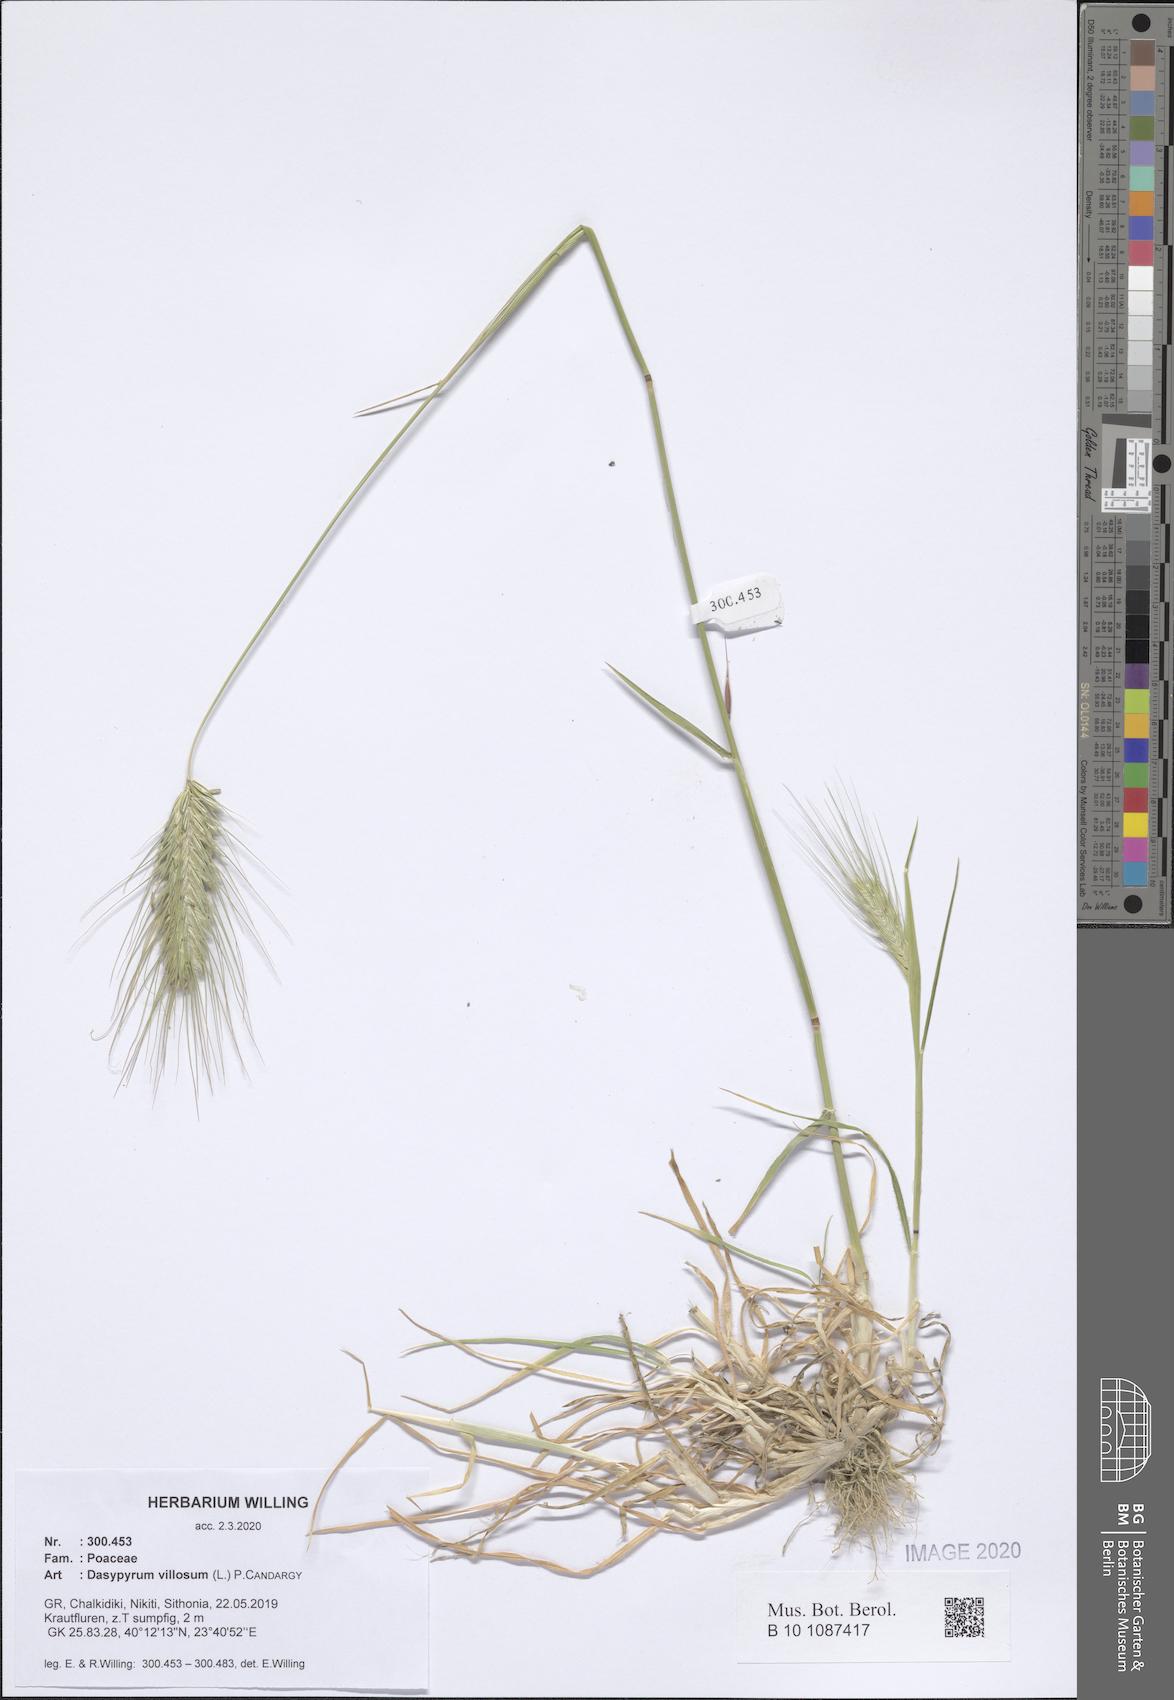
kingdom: Plantae
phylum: Tracheophyta
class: Liliopsida
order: Poales
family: Poaceae
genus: Dasypyrum
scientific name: Dasypyrum villosum
